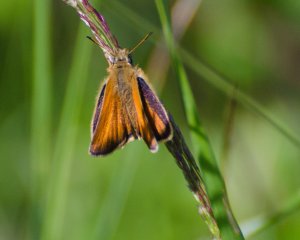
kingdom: Animalia
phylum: Arthropoda
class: Insecta
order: Lepidoptera
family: Hesperiidae
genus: Thymelicus
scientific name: Thymelicus lineola
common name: European Skipper
